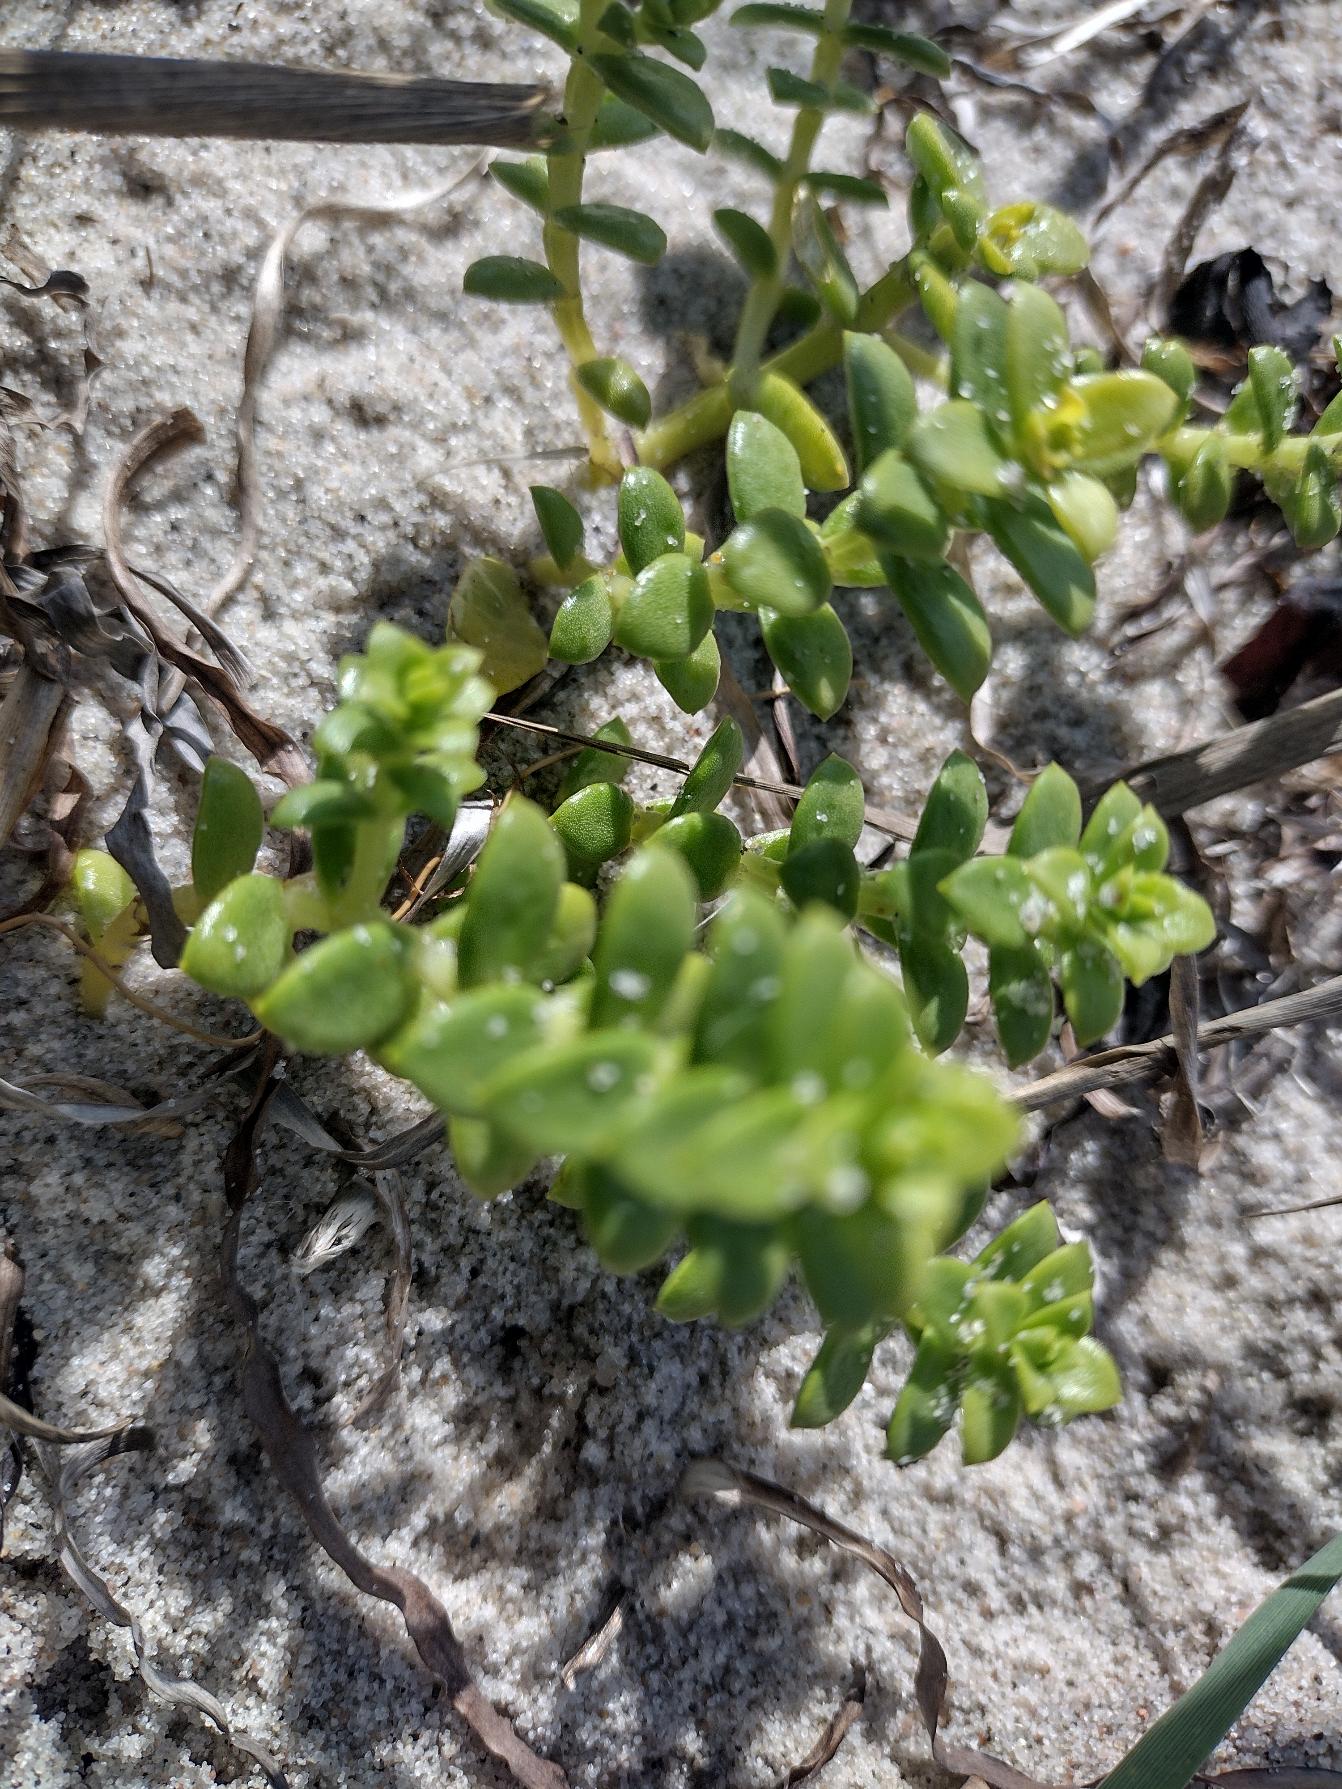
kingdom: Plantae
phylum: Tracheophyta
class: Magnoliopsida
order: Caryophyllales
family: Caryophyllaceae
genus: Honckenya
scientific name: Honckenya peploides
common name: Strandarve
